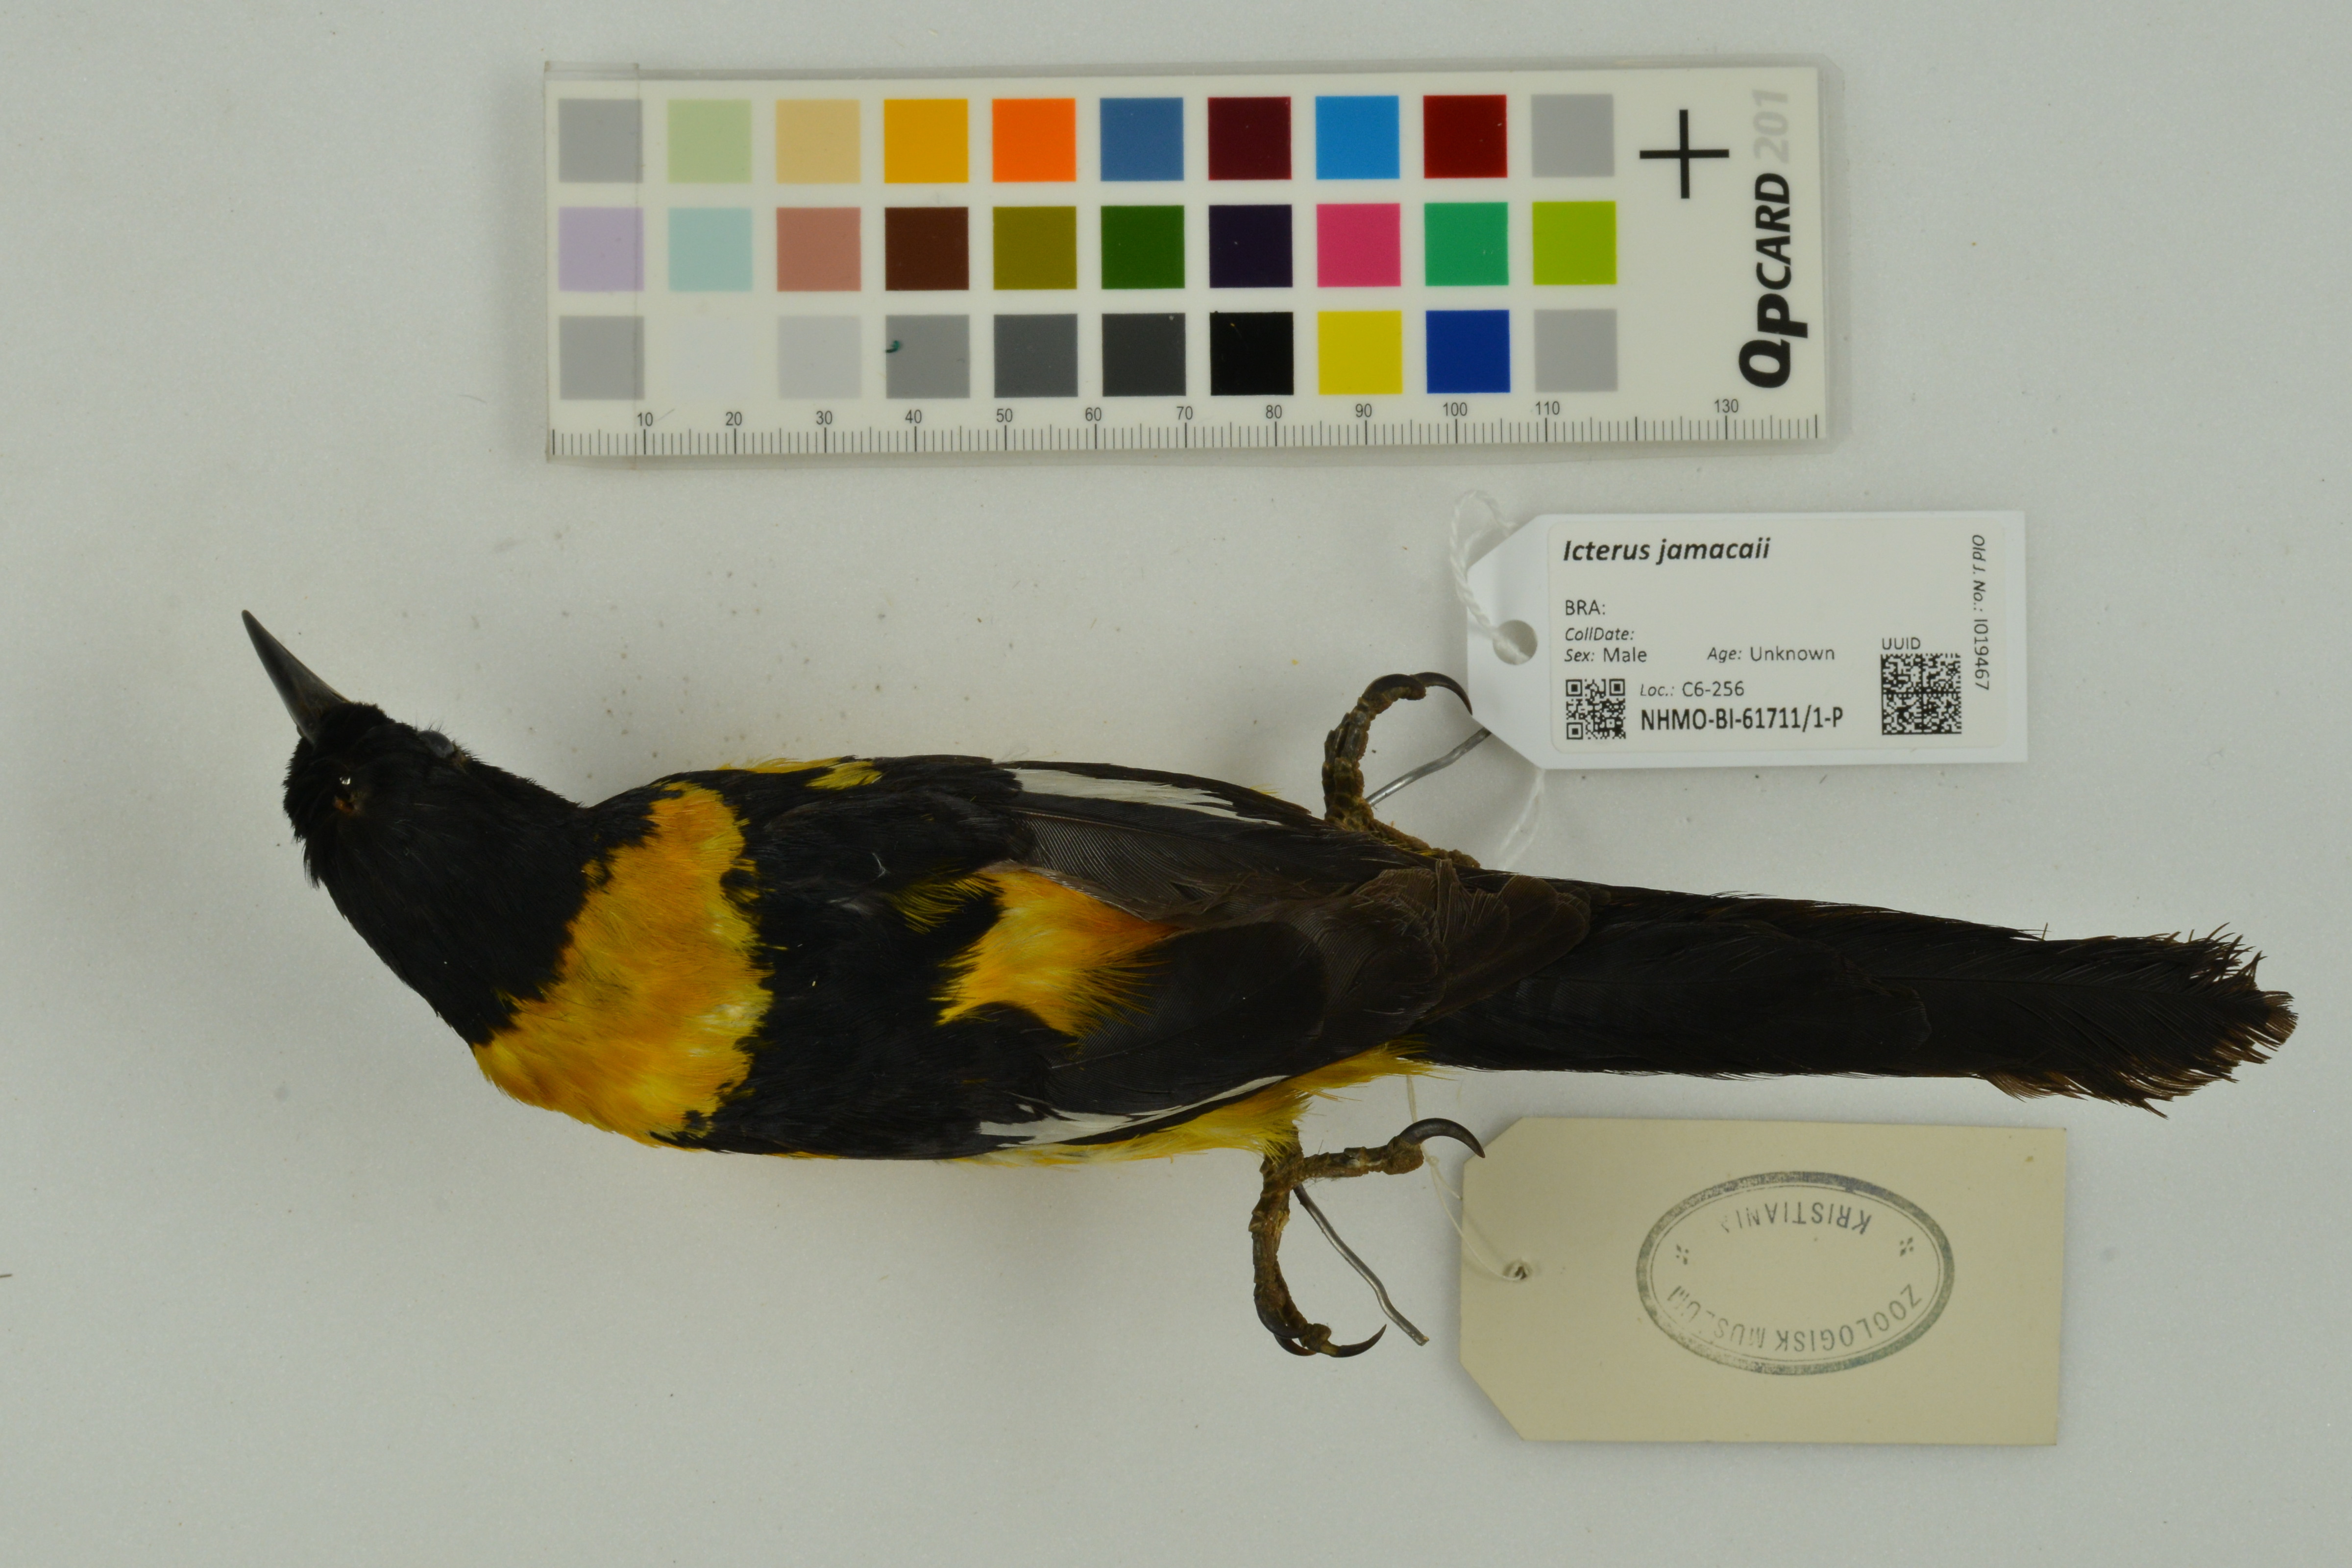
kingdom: Animalia
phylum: Chordata
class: Aves
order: Passeriformes
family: Icteridae
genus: Icterus
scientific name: Icterus icterus
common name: Venezuelan troupial
